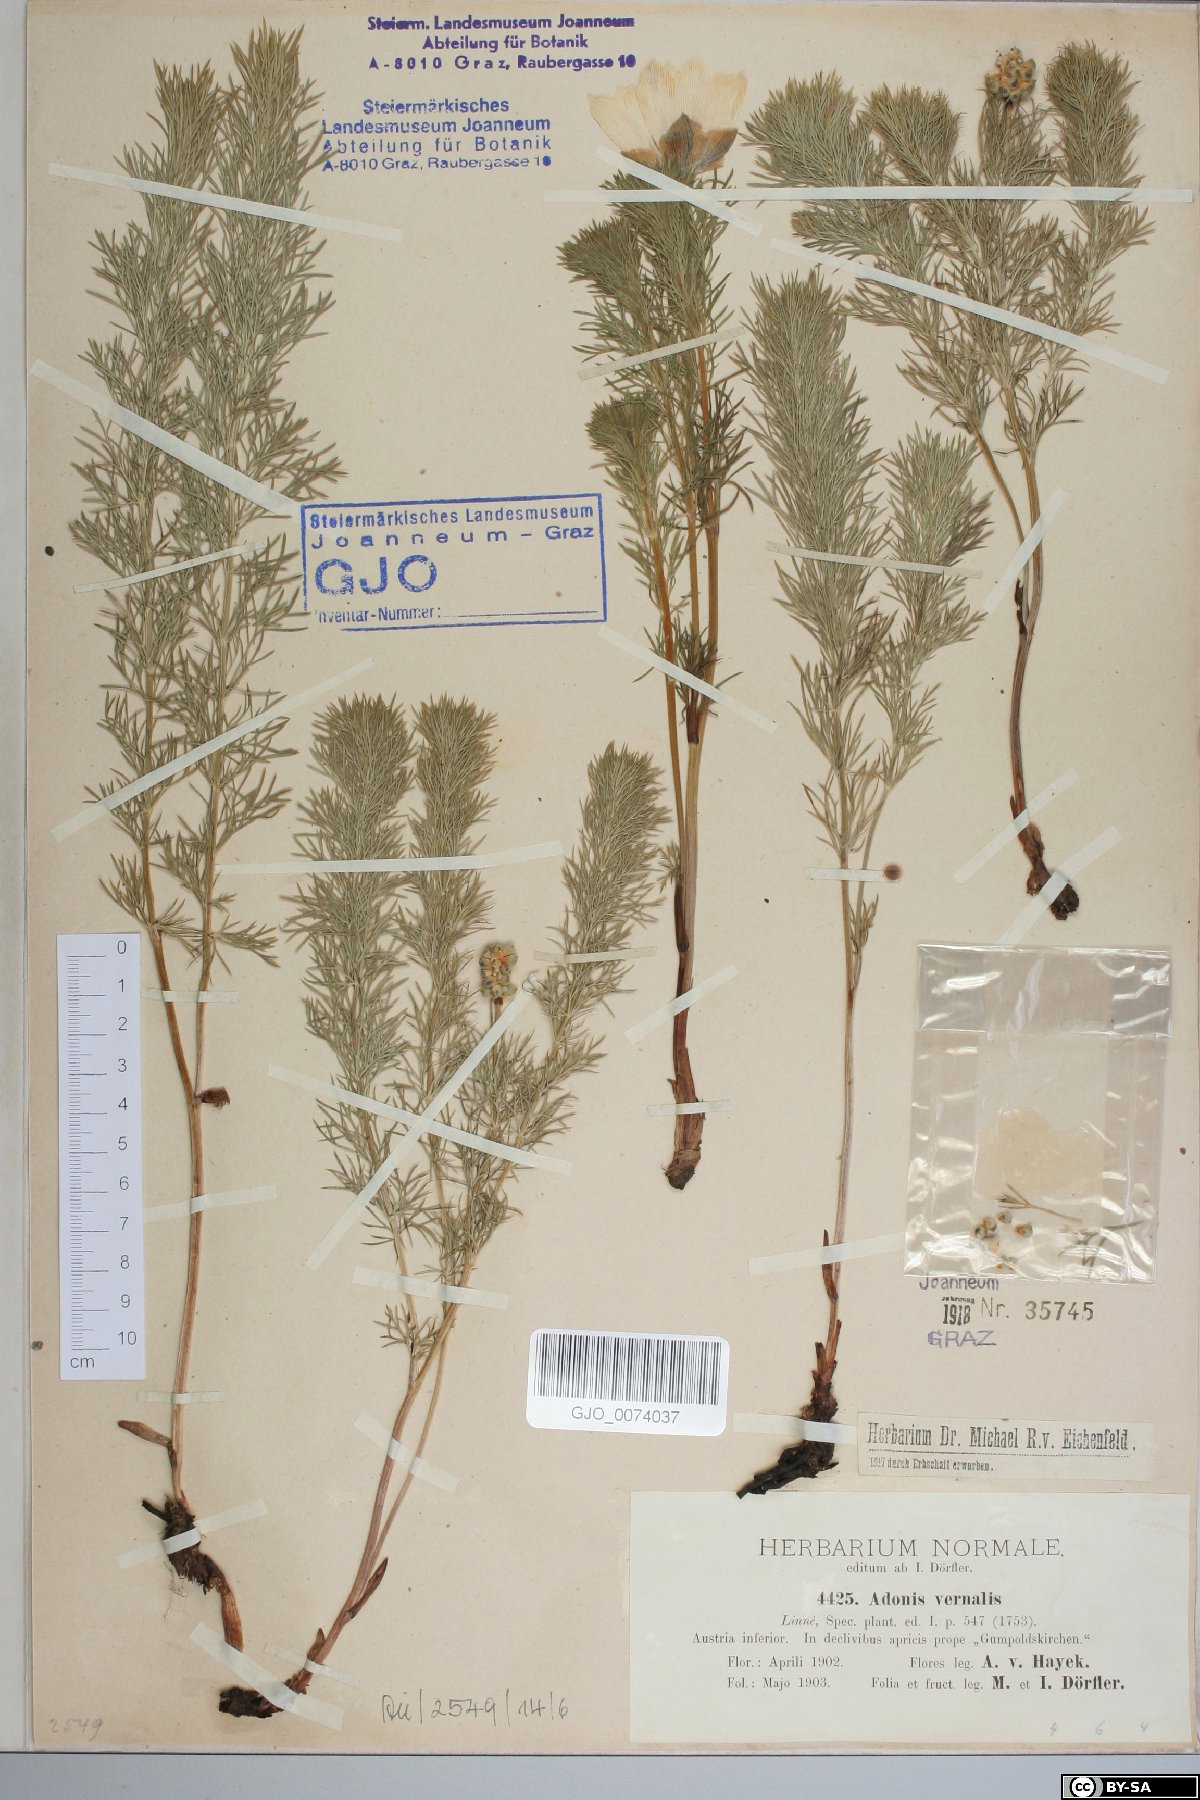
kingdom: Plantae
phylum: Tracheophyta
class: Magnoliopsida
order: Ranunculales
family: Ranunculaceae
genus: Adonis
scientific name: Adonis vernalis
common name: Yellow pheasants-eye
